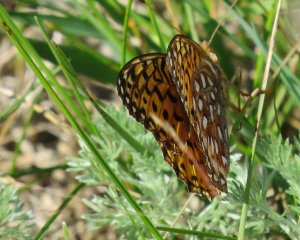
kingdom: Animalia
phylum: Arthropoda
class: Insecta
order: Lepidoptera
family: Nymphalidae
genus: Speyeria
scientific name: Speyeria aphrodite
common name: Aphrodite Fritillary
